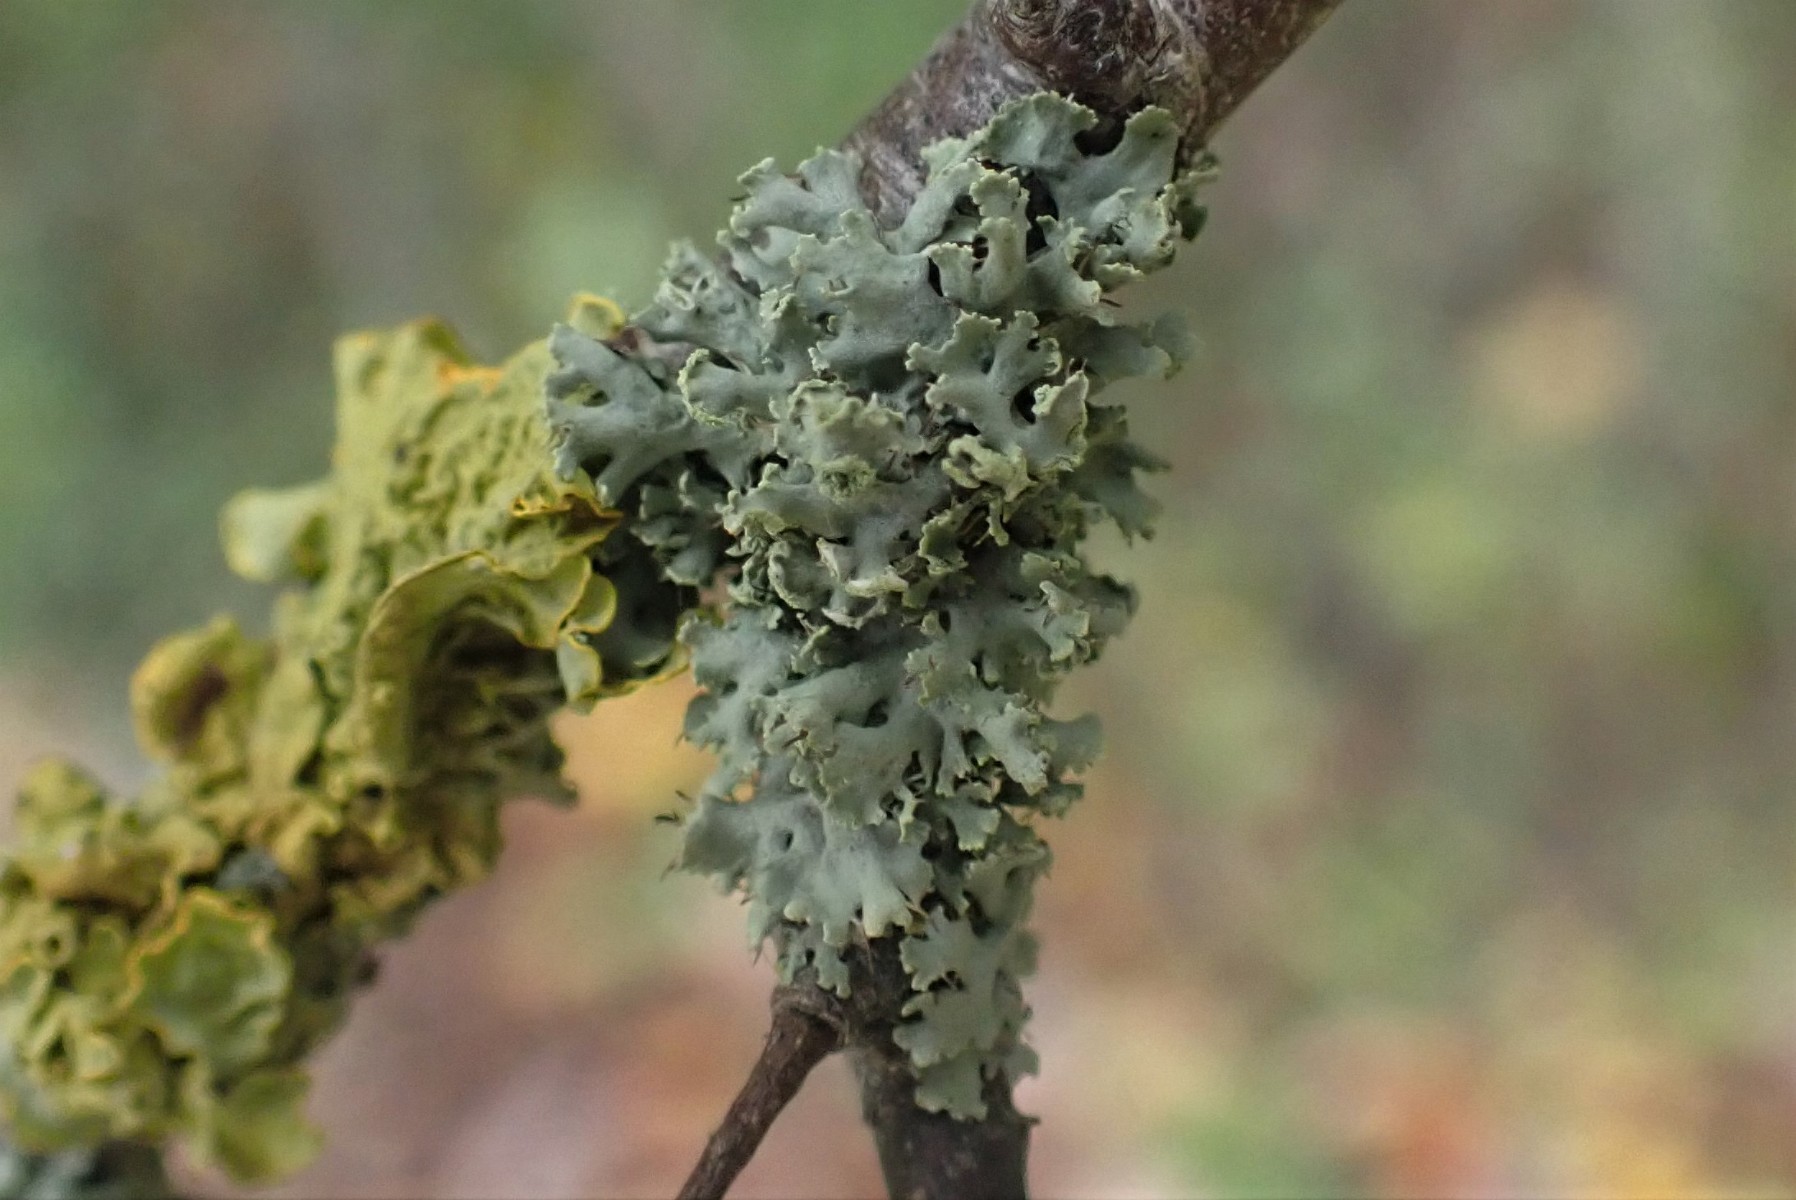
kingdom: Fungi
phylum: Ascomycota
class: Lecanoromycetes
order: Caliciales
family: Physciaceae
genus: Physcia
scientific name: Physcia tenella
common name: spæd rosetlav
